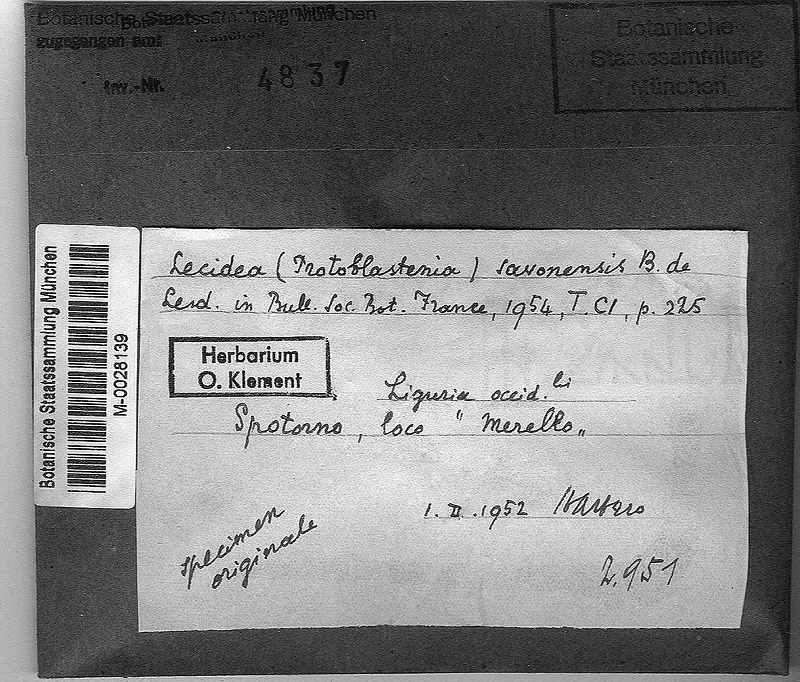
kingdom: Fungi
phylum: Ascomycota
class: Lecanoromycetes
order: Lecideales
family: Lecideaceae
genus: Clauzadea
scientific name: Clauzadea chondrodes
